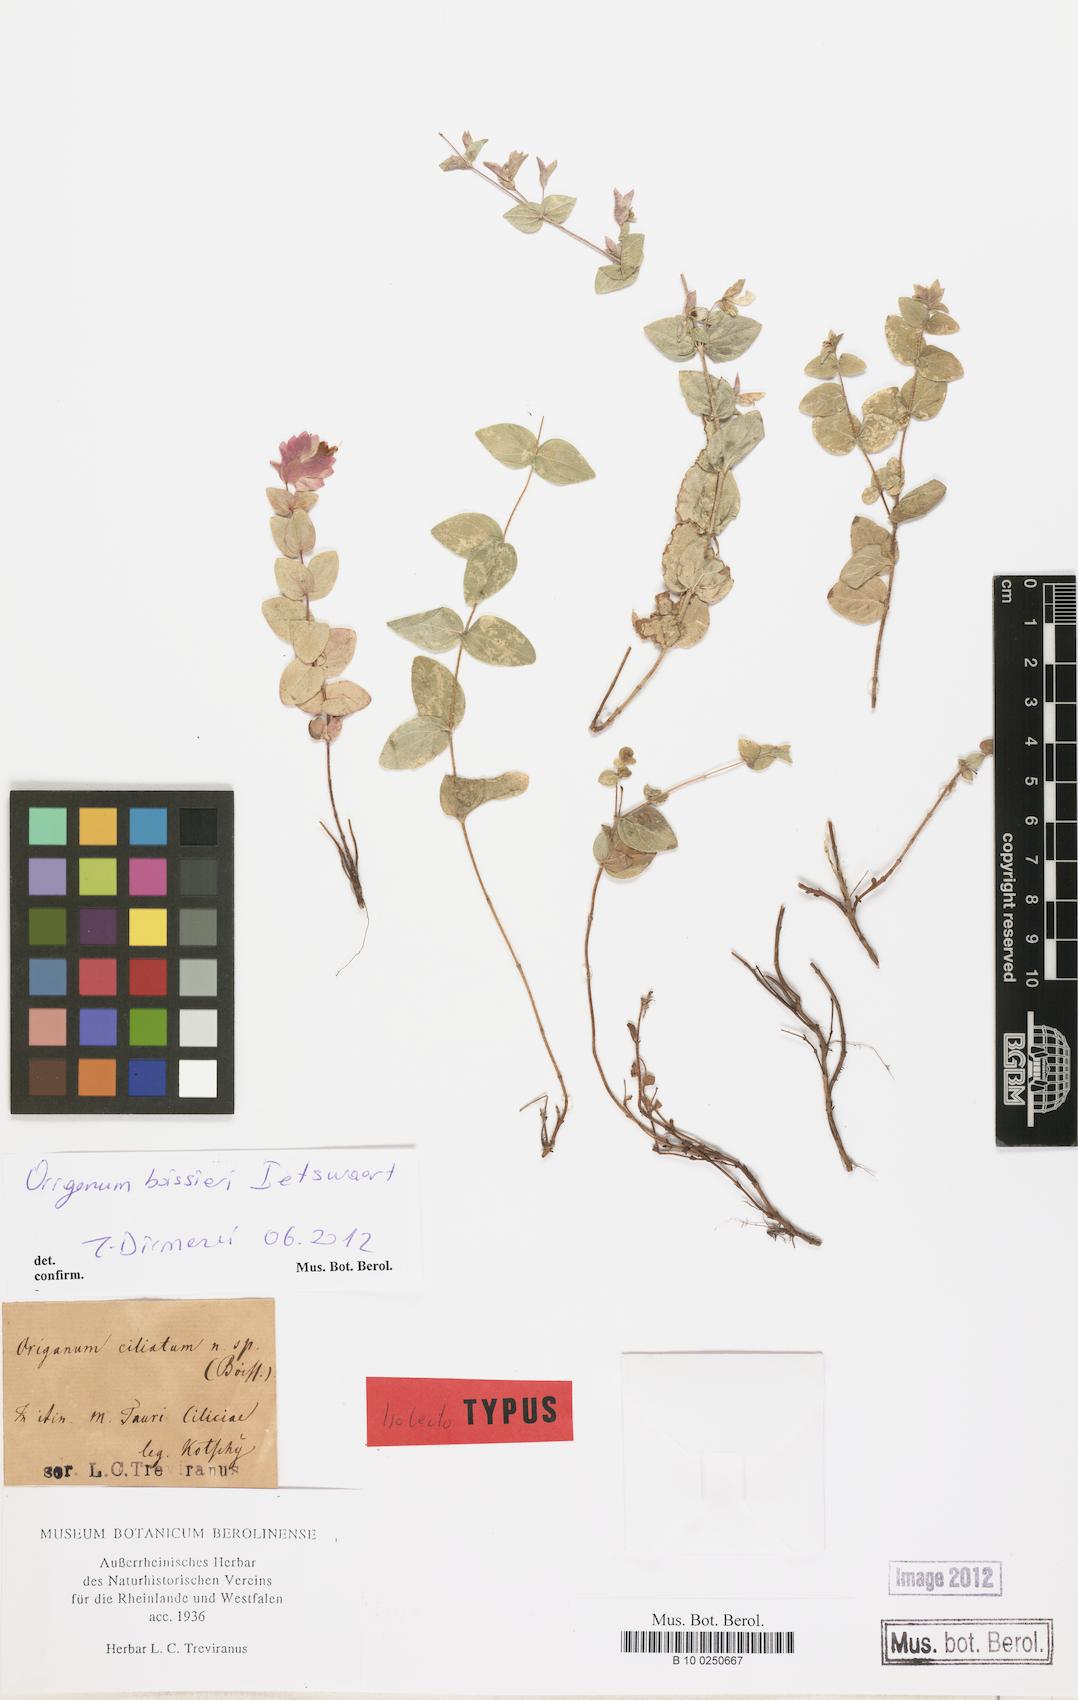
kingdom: Plantae
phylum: Tracheophyta
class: Magnoliopsida
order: Lamiales
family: Lamiaceae
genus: Origanum
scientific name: Origanum boissieri
